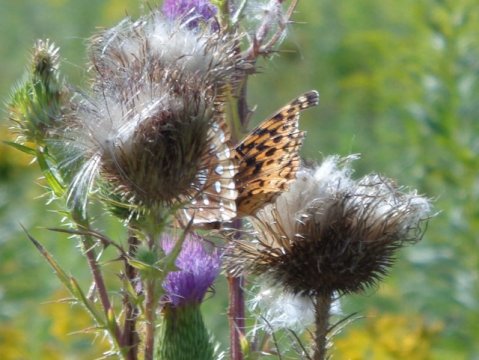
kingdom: Animalia
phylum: Arthropoda
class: Insecta
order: Lepidoptera
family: Nymphalidae
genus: Speyeria
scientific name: Speyeria cybele
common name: Great Spangled Fritillary
